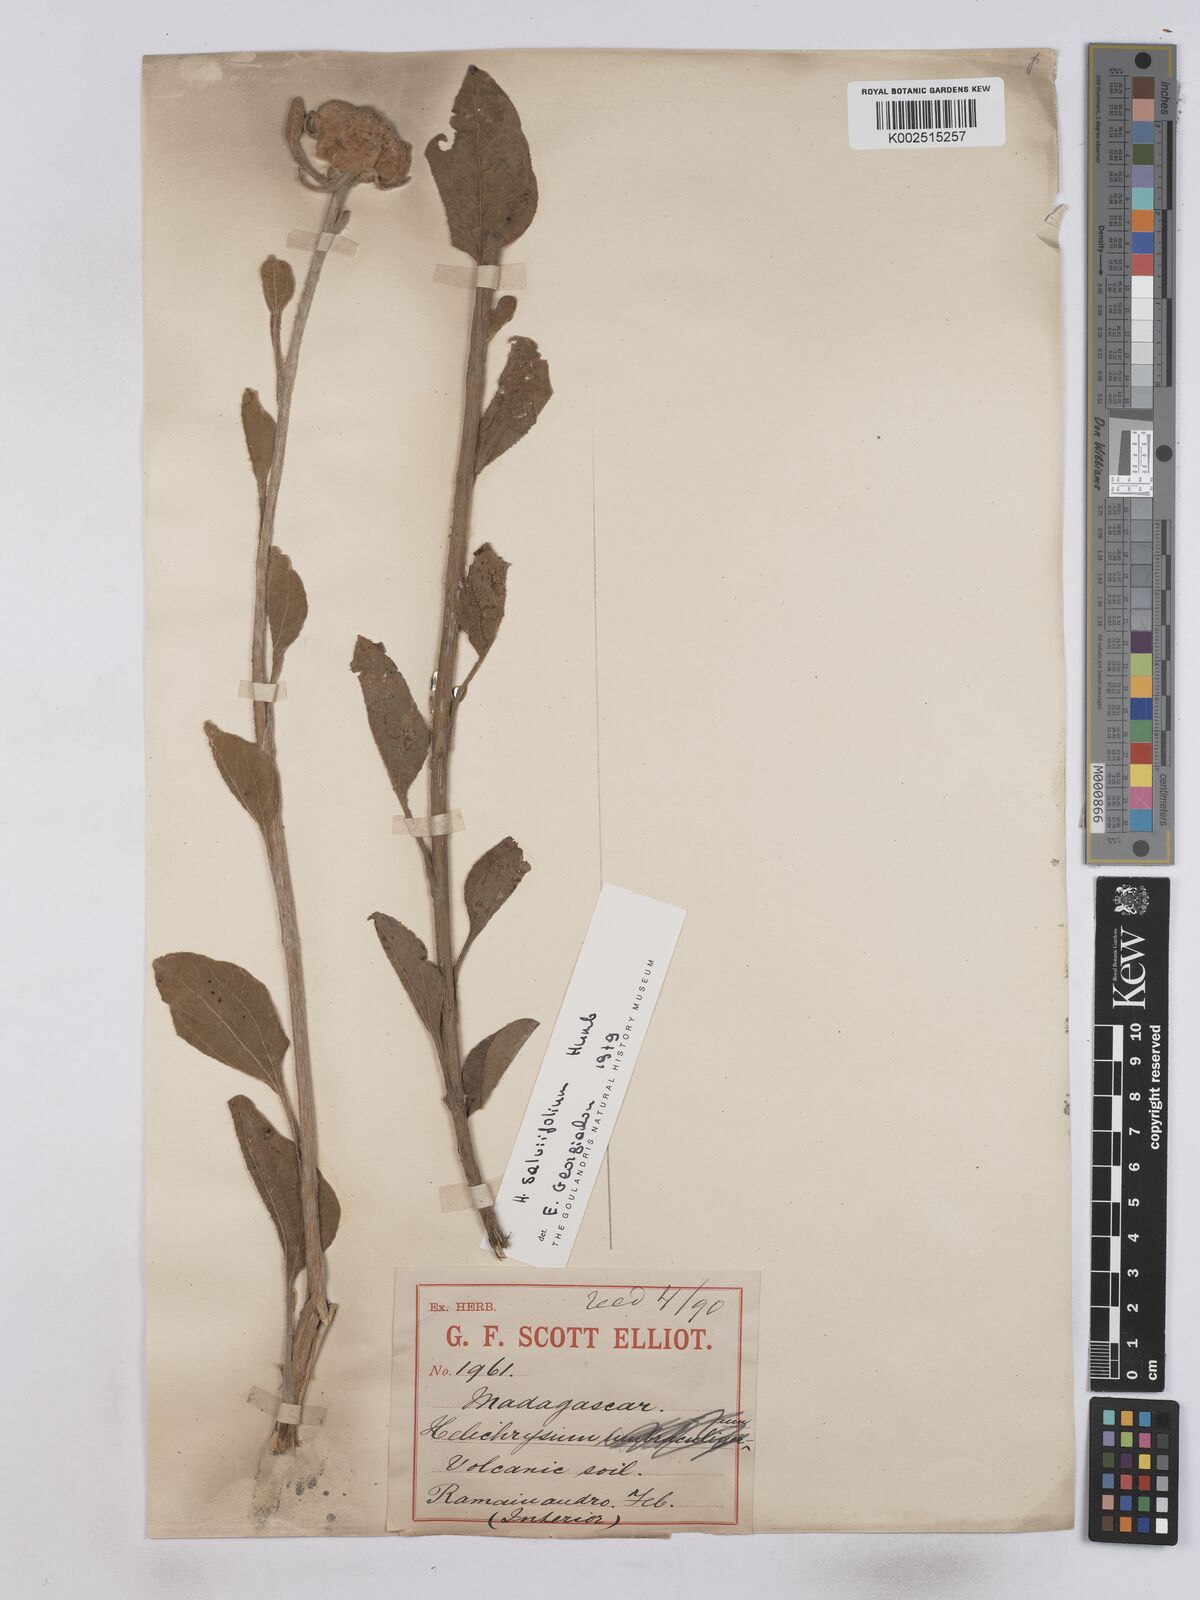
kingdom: Plantae
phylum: Tracheophyta
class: Magnoliopsida
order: Asterales
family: Asteraceae
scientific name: Asteraceae
